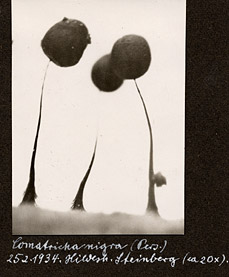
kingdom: Protozoa
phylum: Mycetozoa
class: Myxomycetes
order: Stemonitidales
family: Stemonitidaceae
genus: Comatricha
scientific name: Comatricha nigra
